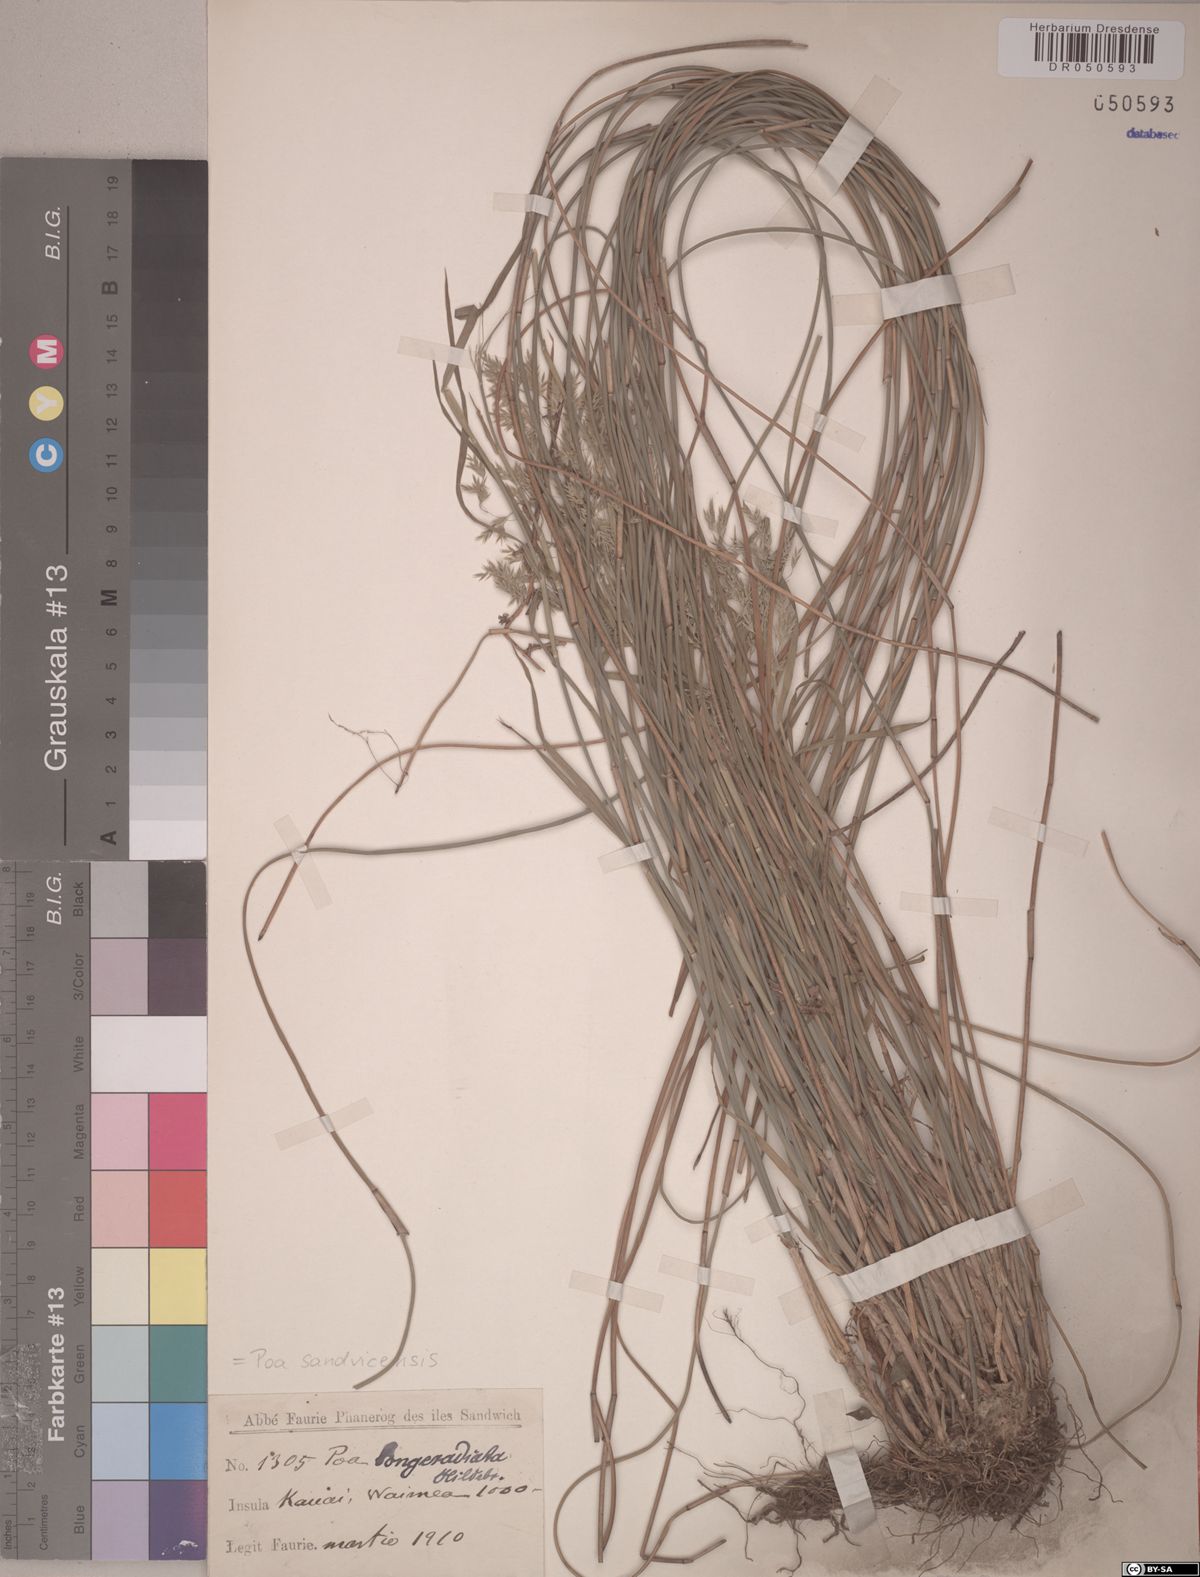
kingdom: Plantae
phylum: Tracheophyta
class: Liliopsida
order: Poales
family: Poaceae
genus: Poa
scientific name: Poa sandvicensis
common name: Hawaiian bluegrass
